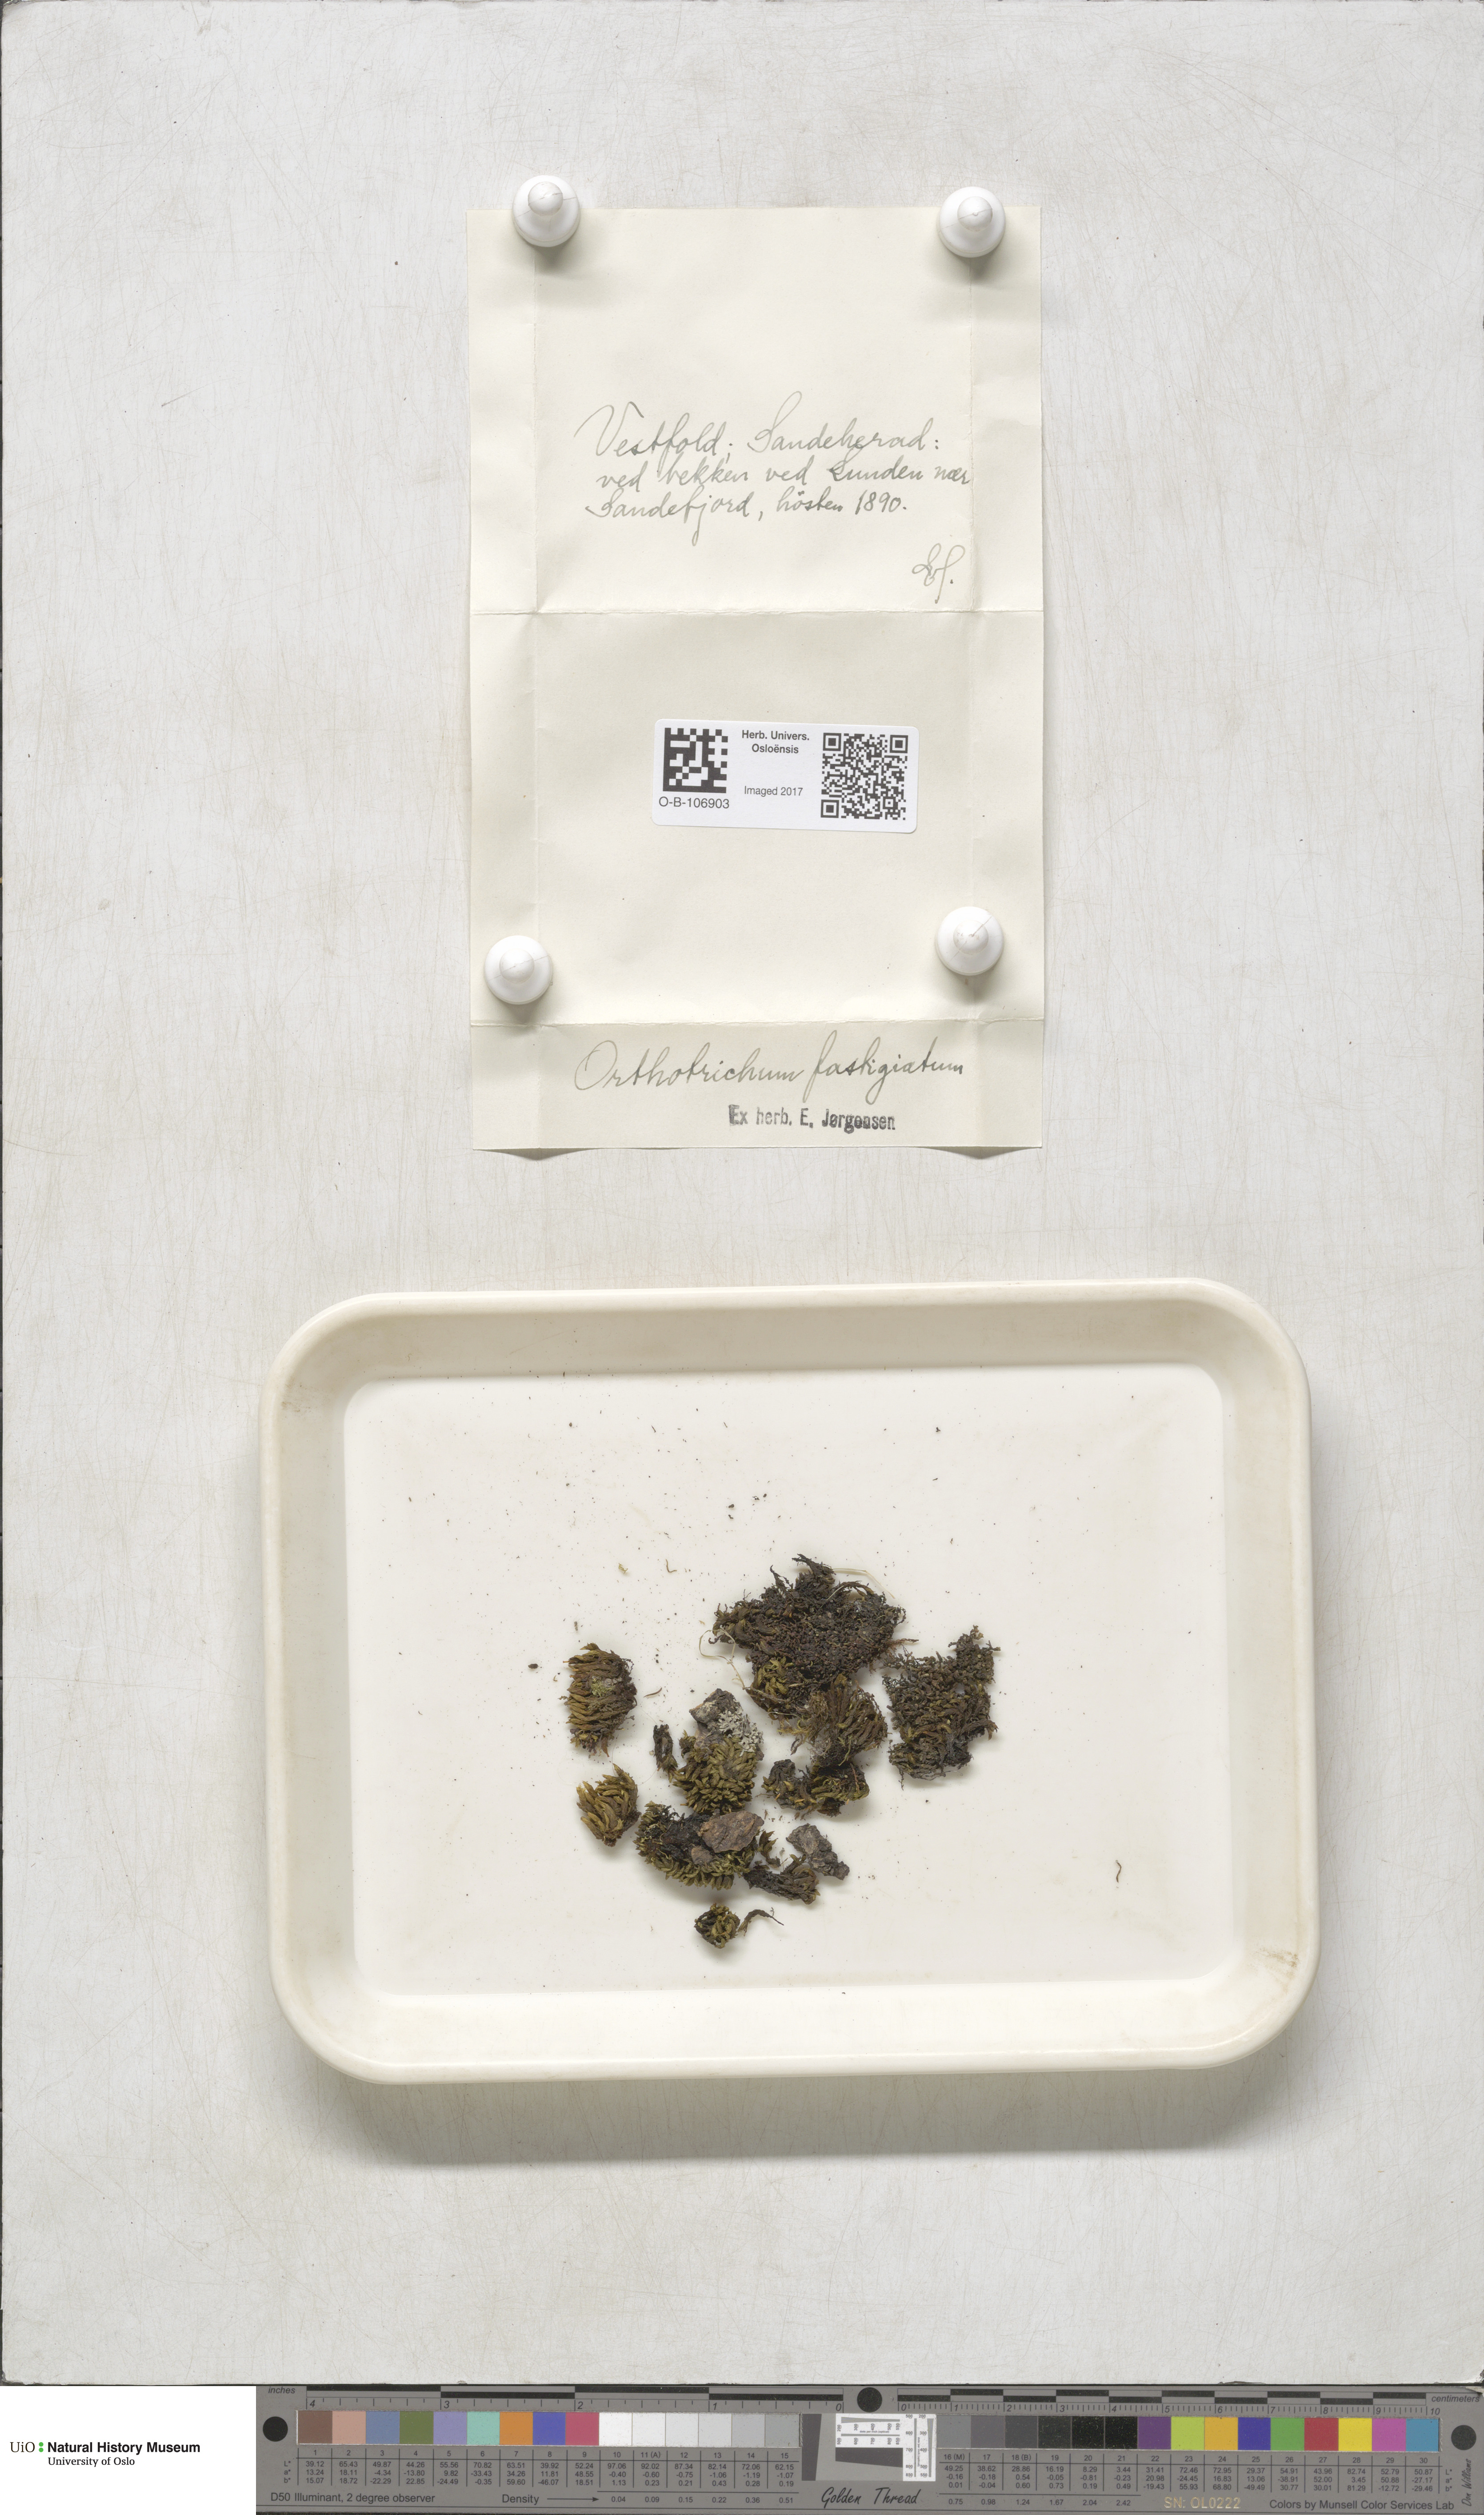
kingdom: Plantae
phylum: Bryophyta
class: Bryopsida
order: Orthotrichales
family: Orthotrichaceae
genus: Lewinskya
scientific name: Lewinskya affinis
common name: Wood bristle-moss
